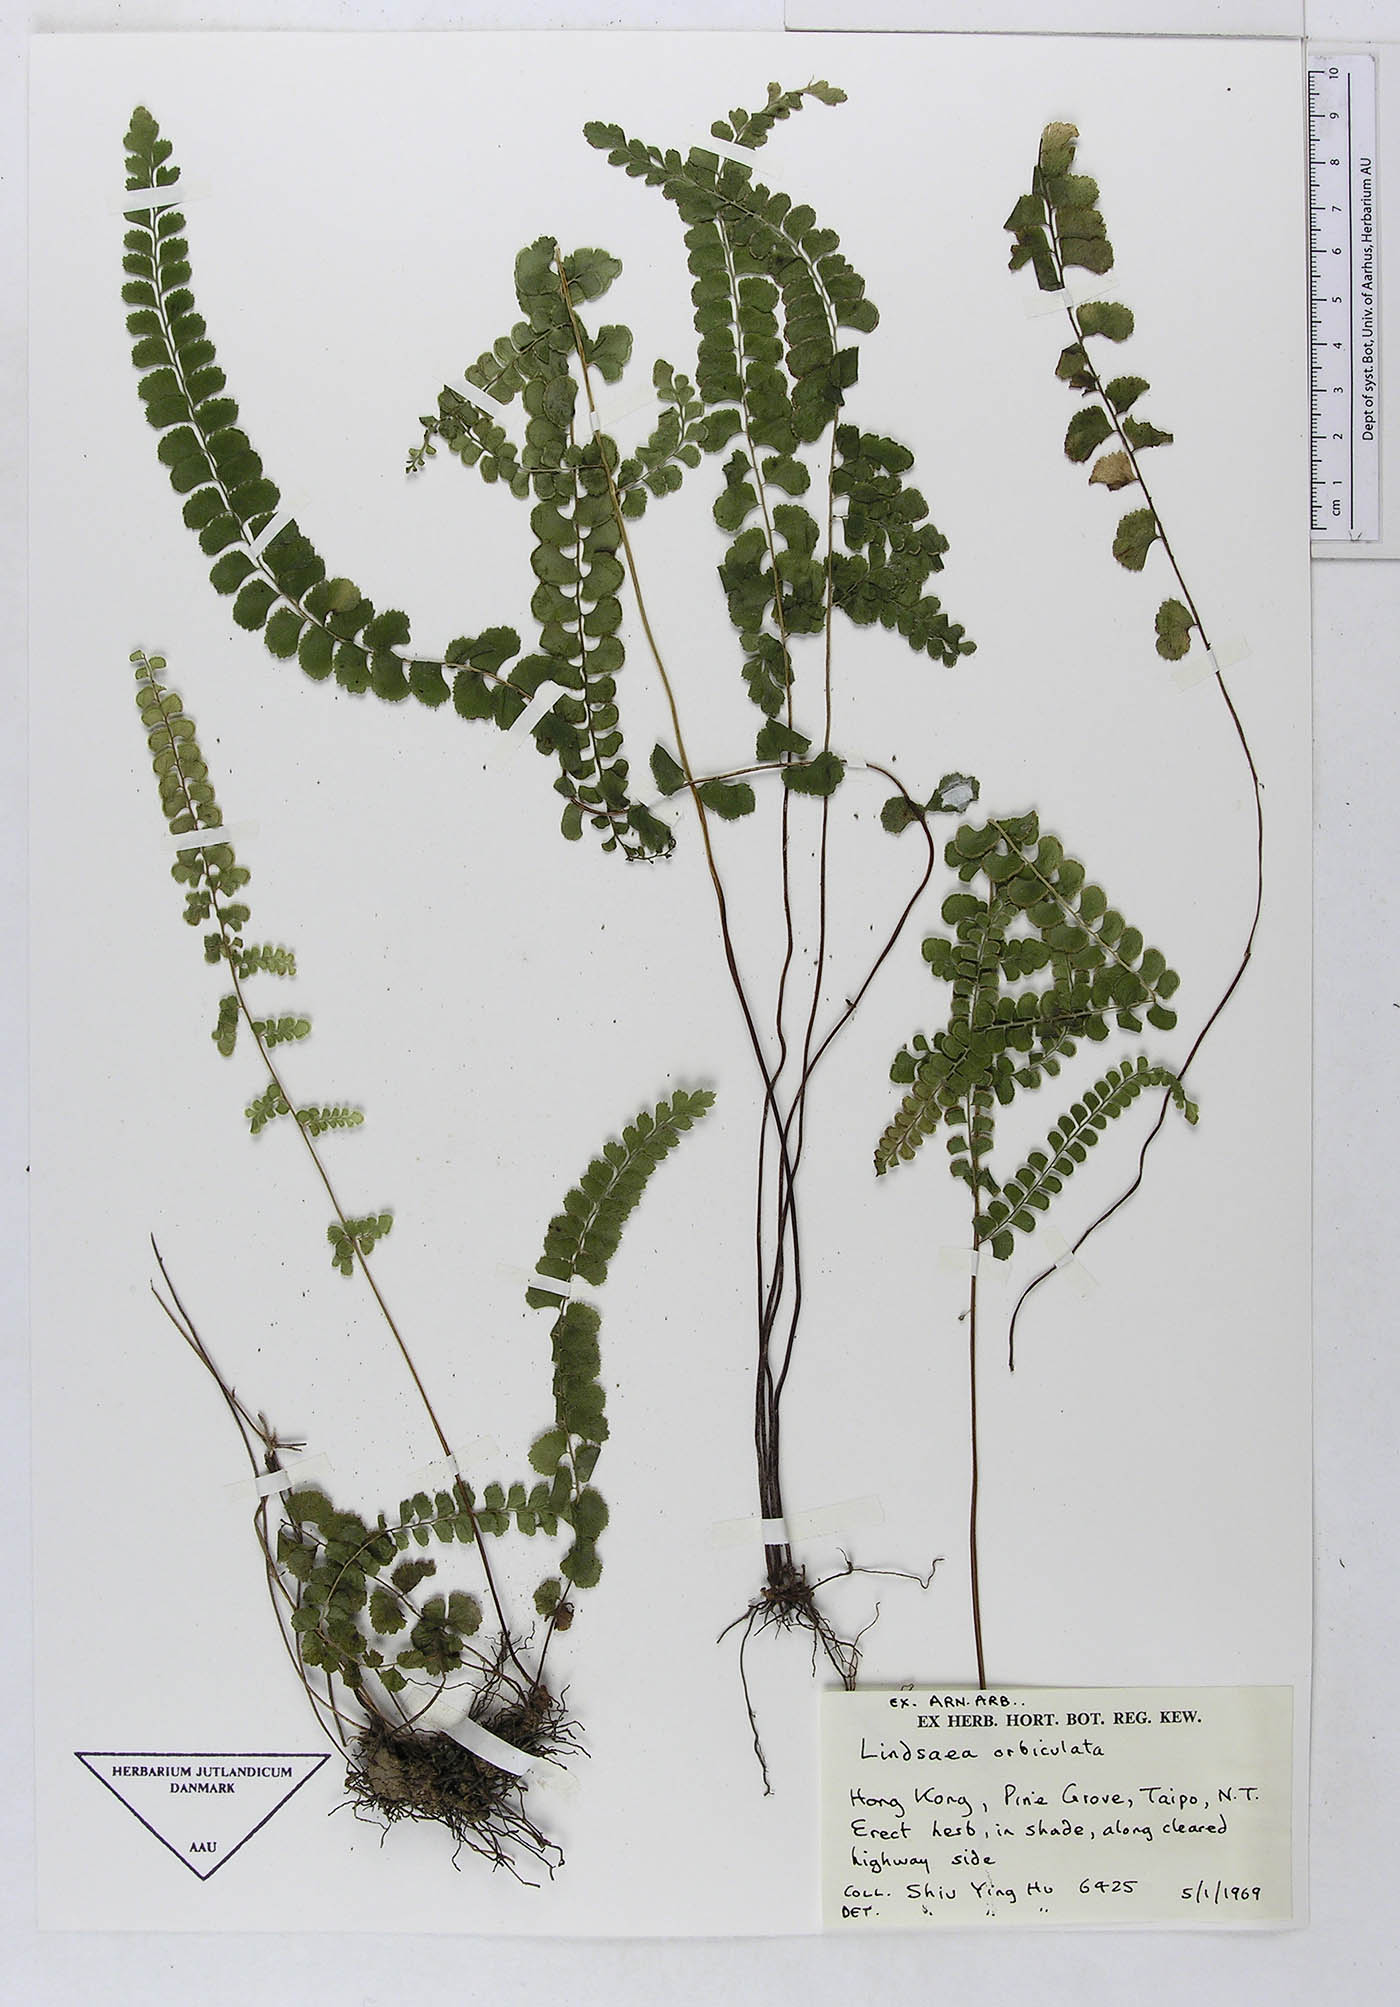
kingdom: Plantae
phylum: Tracheophyta
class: Polypodiopsida
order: Polypodiales
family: Lindsaeaceae
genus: Lindsaea
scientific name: Lindsaea orbiculata
